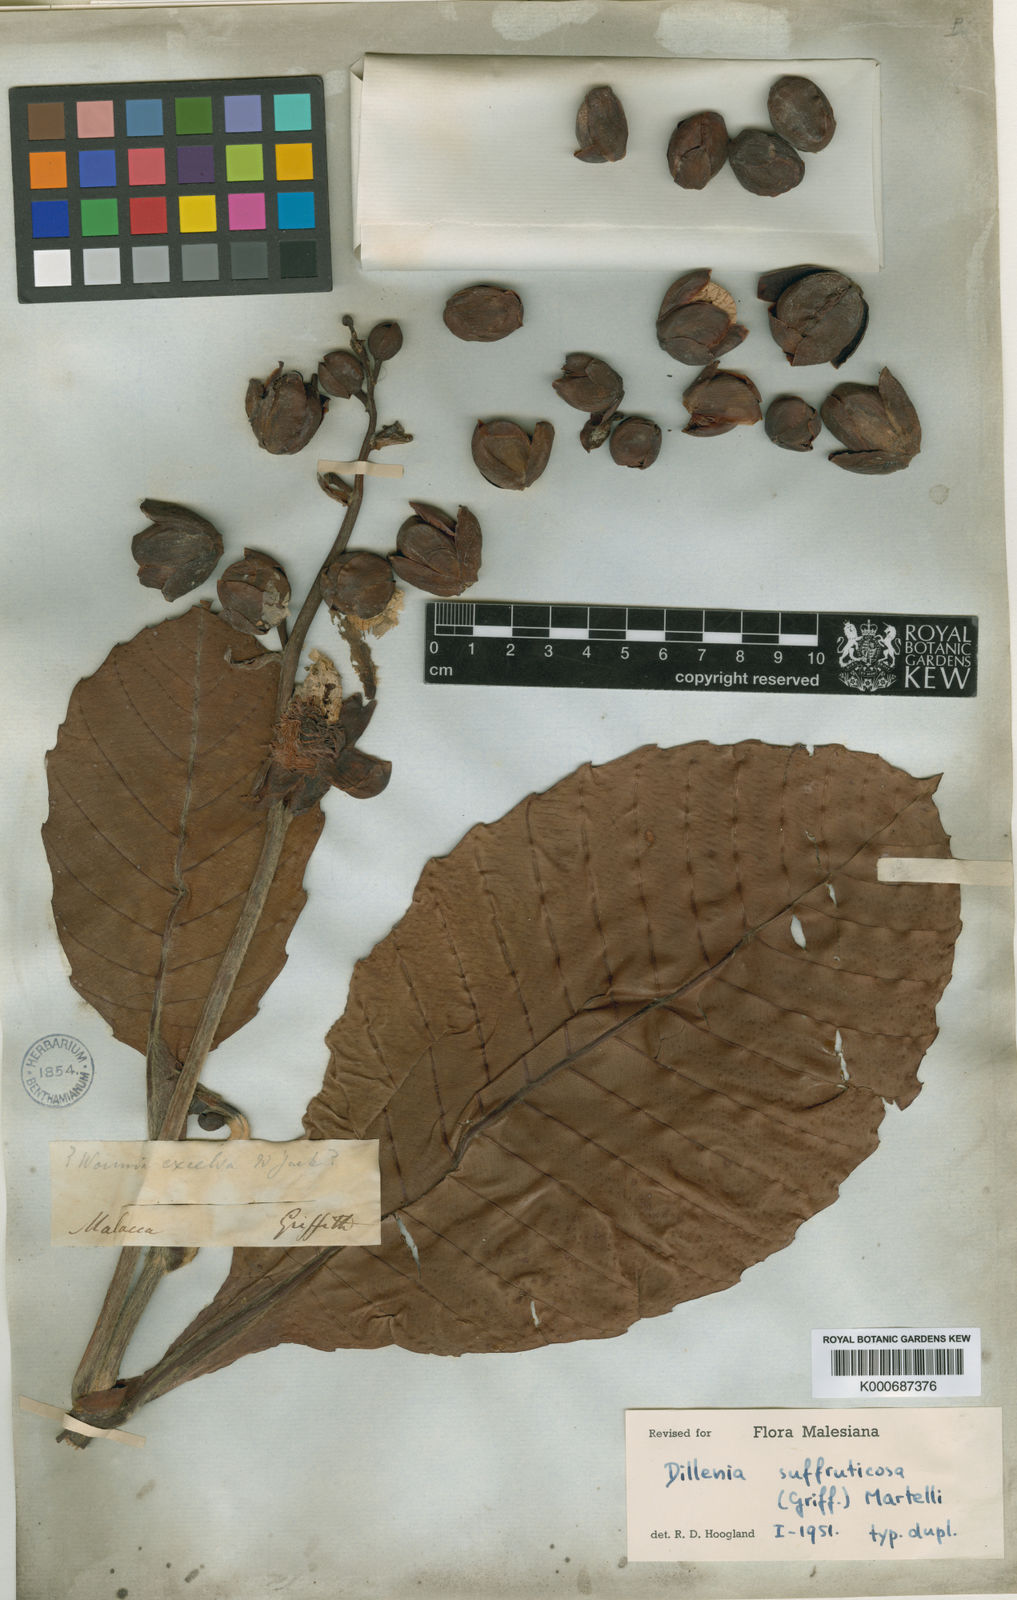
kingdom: Plantae
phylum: Tracheophyta
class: Magnoliopsida
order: Dilleniales
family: Dilleniaceae
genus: Dillenia
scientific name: Dillenia suffruticosa
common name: Shrubby dillenia
